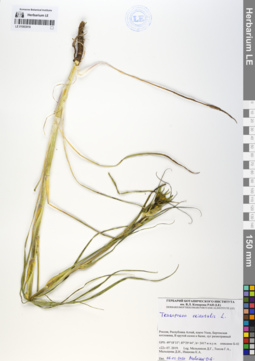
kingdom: Plantae
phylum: Tracheophyta
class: Magnoliopsida
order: Asterales
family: Asteraceae
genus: Tragopogon
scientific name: Tragopogon orientalis
